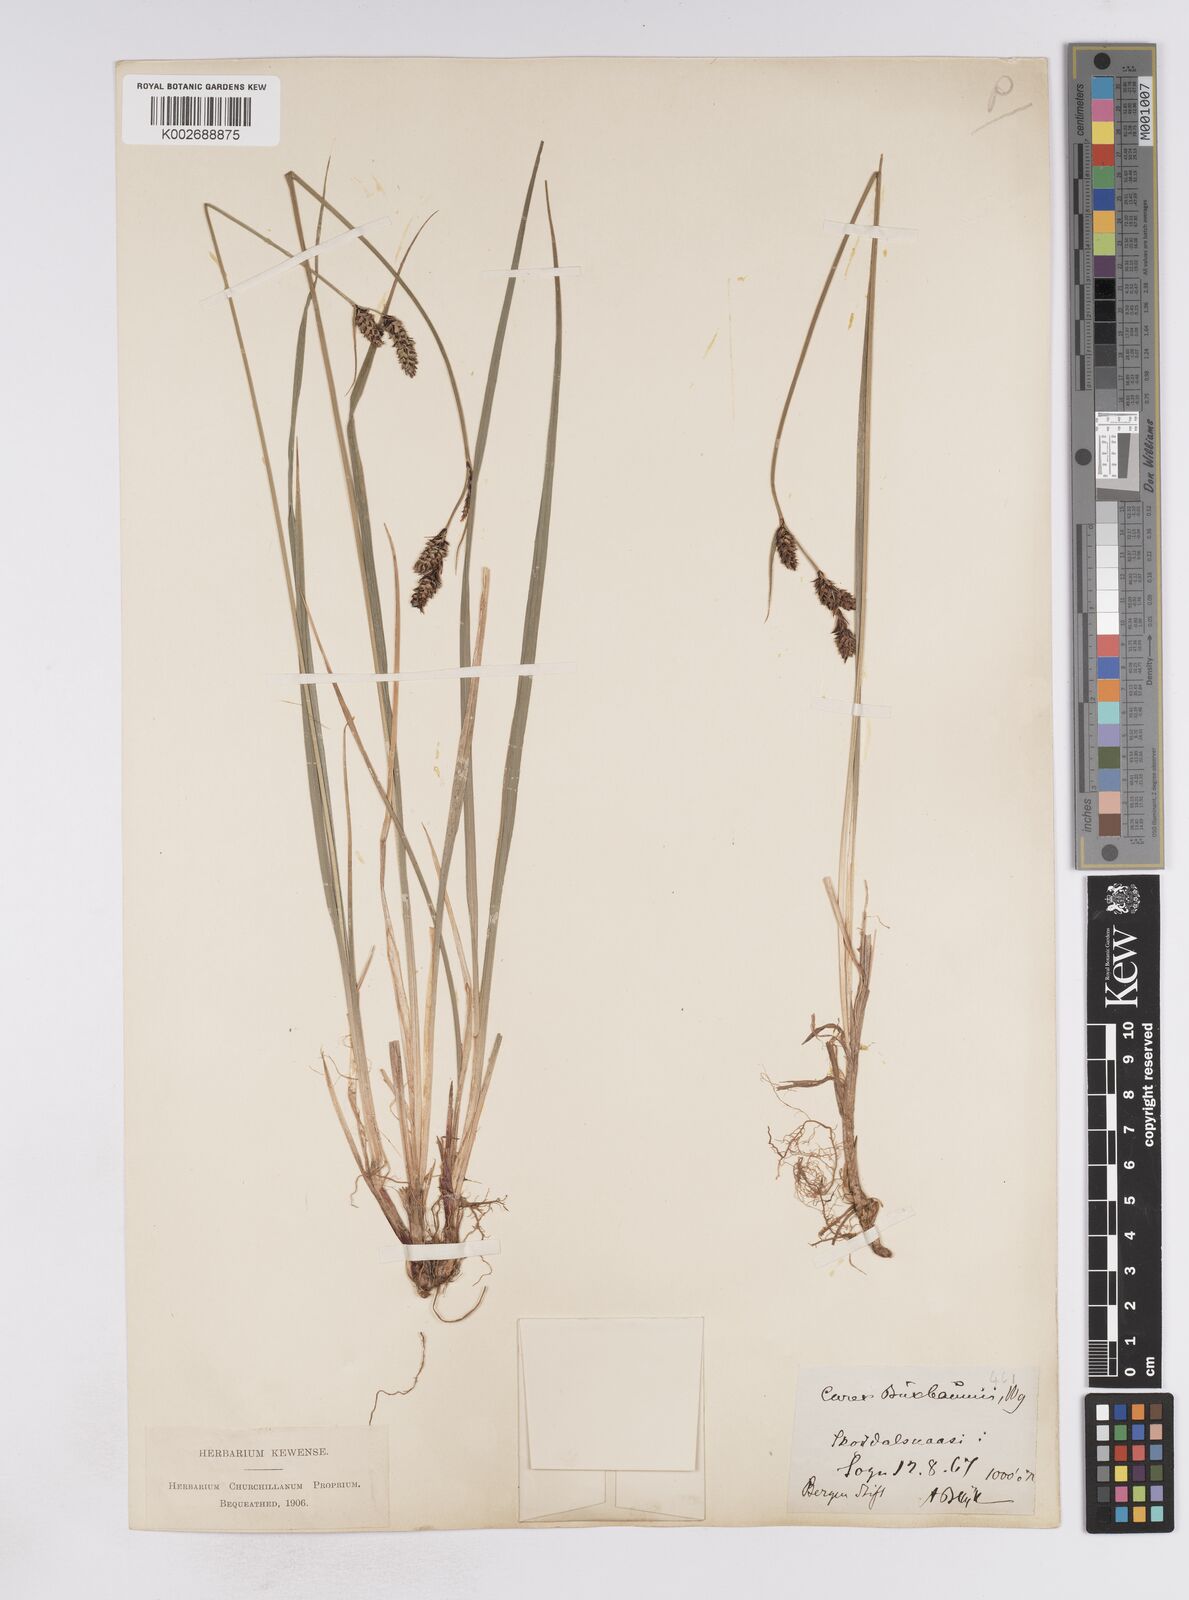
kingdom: Plantae
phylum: Tracheophyta
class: Liliopsida
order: Poales
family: Cyperaceae
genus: Carex
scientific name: Carex buxbaumii
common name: Club sedge
